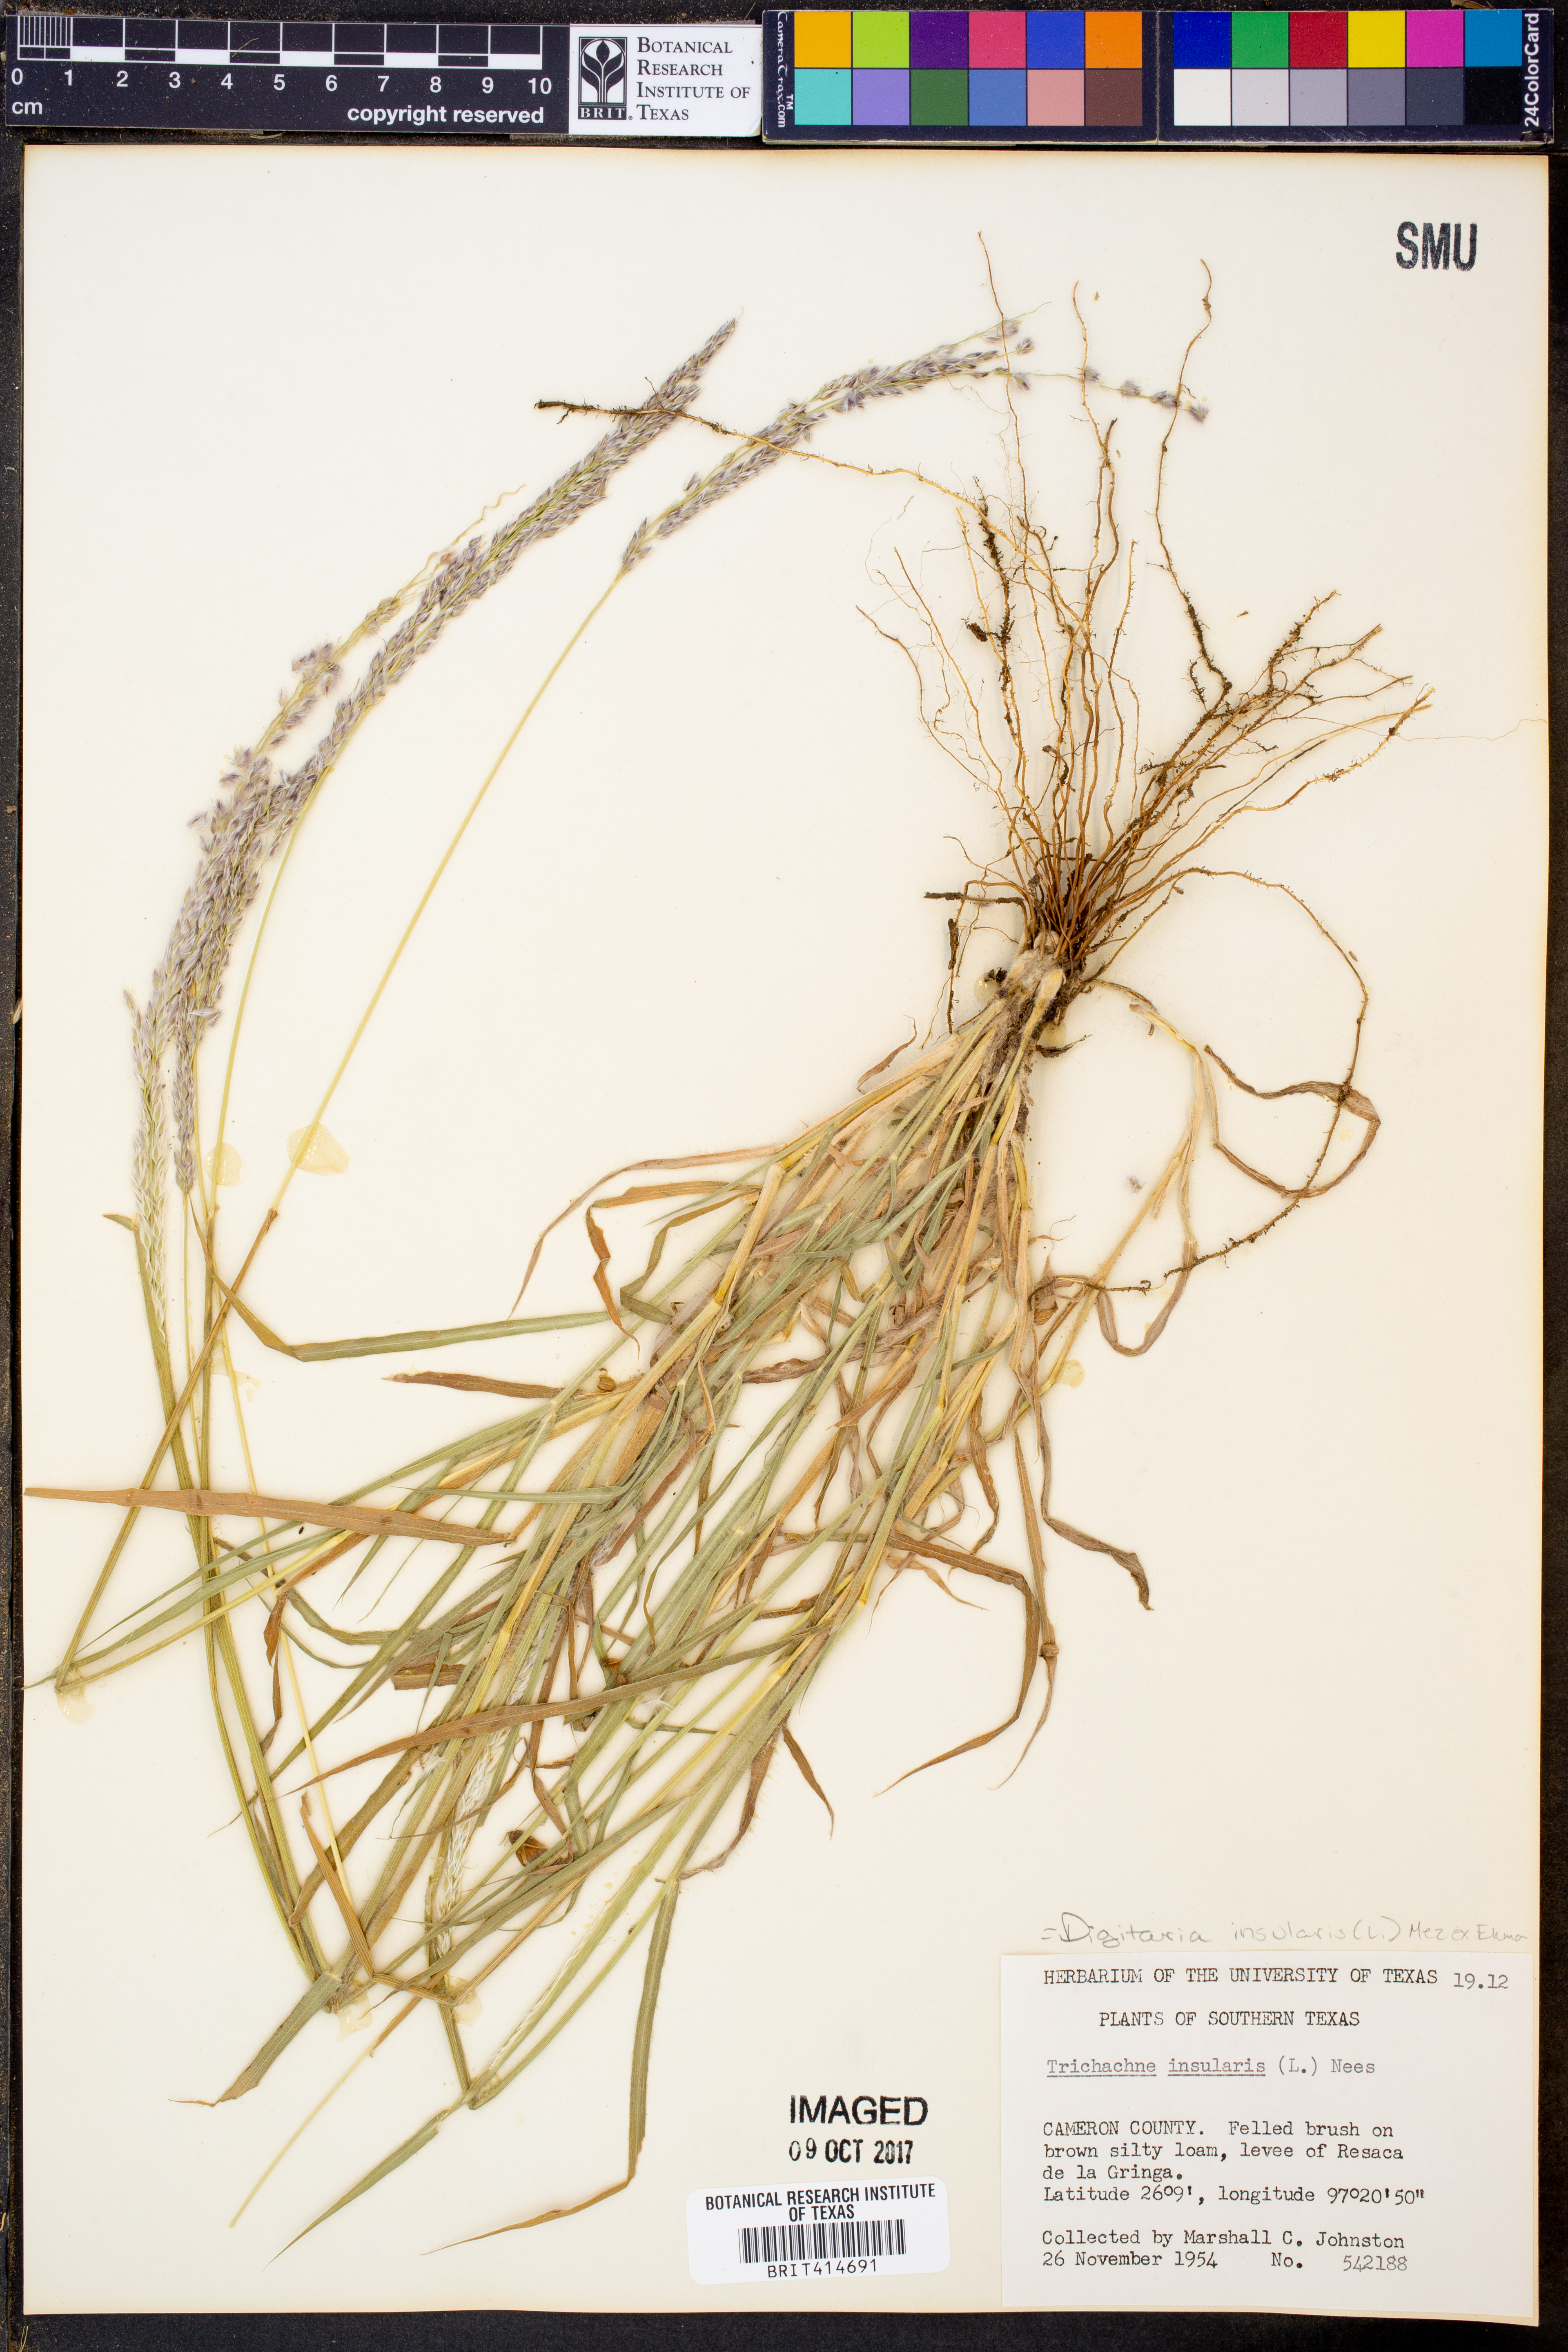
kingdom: Plantae
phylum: Tracheophyta
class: Liliopsida
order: Poales
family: Poaceae
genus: Digitaria
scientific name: Digitaria insularis
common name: Sourgrass
